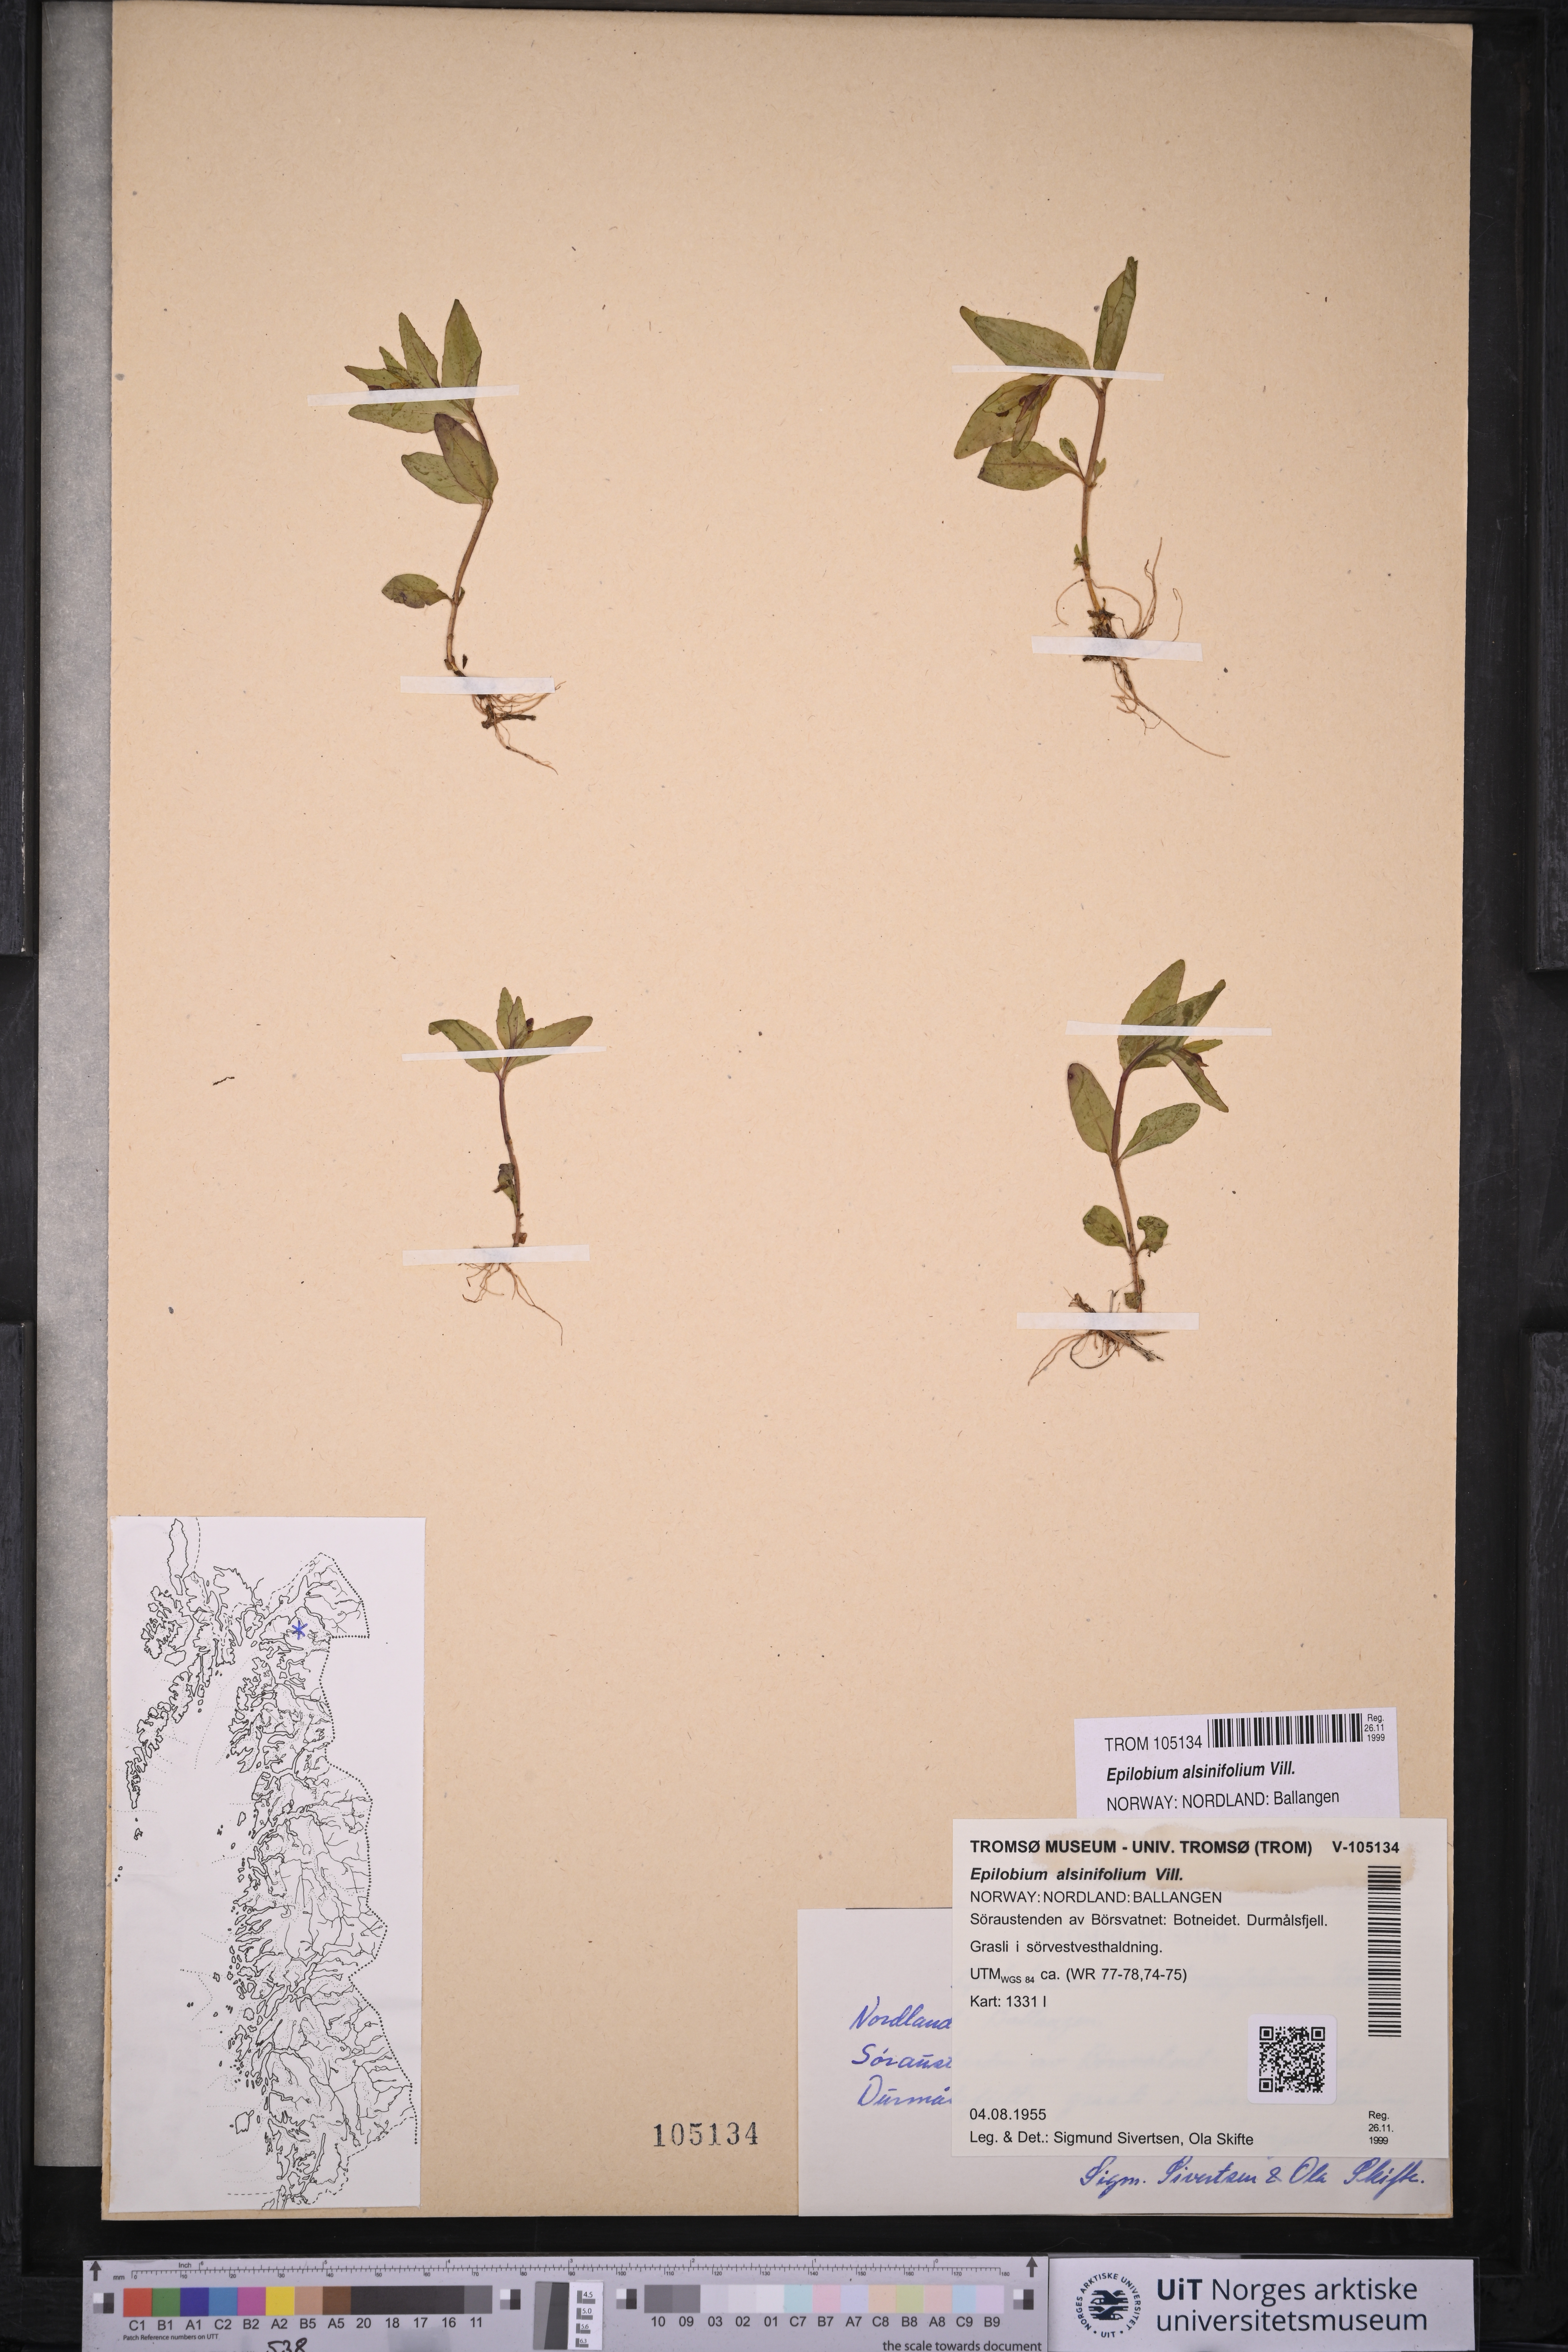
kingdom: Plantae
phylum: Tracheophyta
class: Magnoliopsida
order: Myrtales
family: Onagraceae
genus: Epilobium
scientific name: Epilobium alsinifolium
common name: Chickweed willowherb
